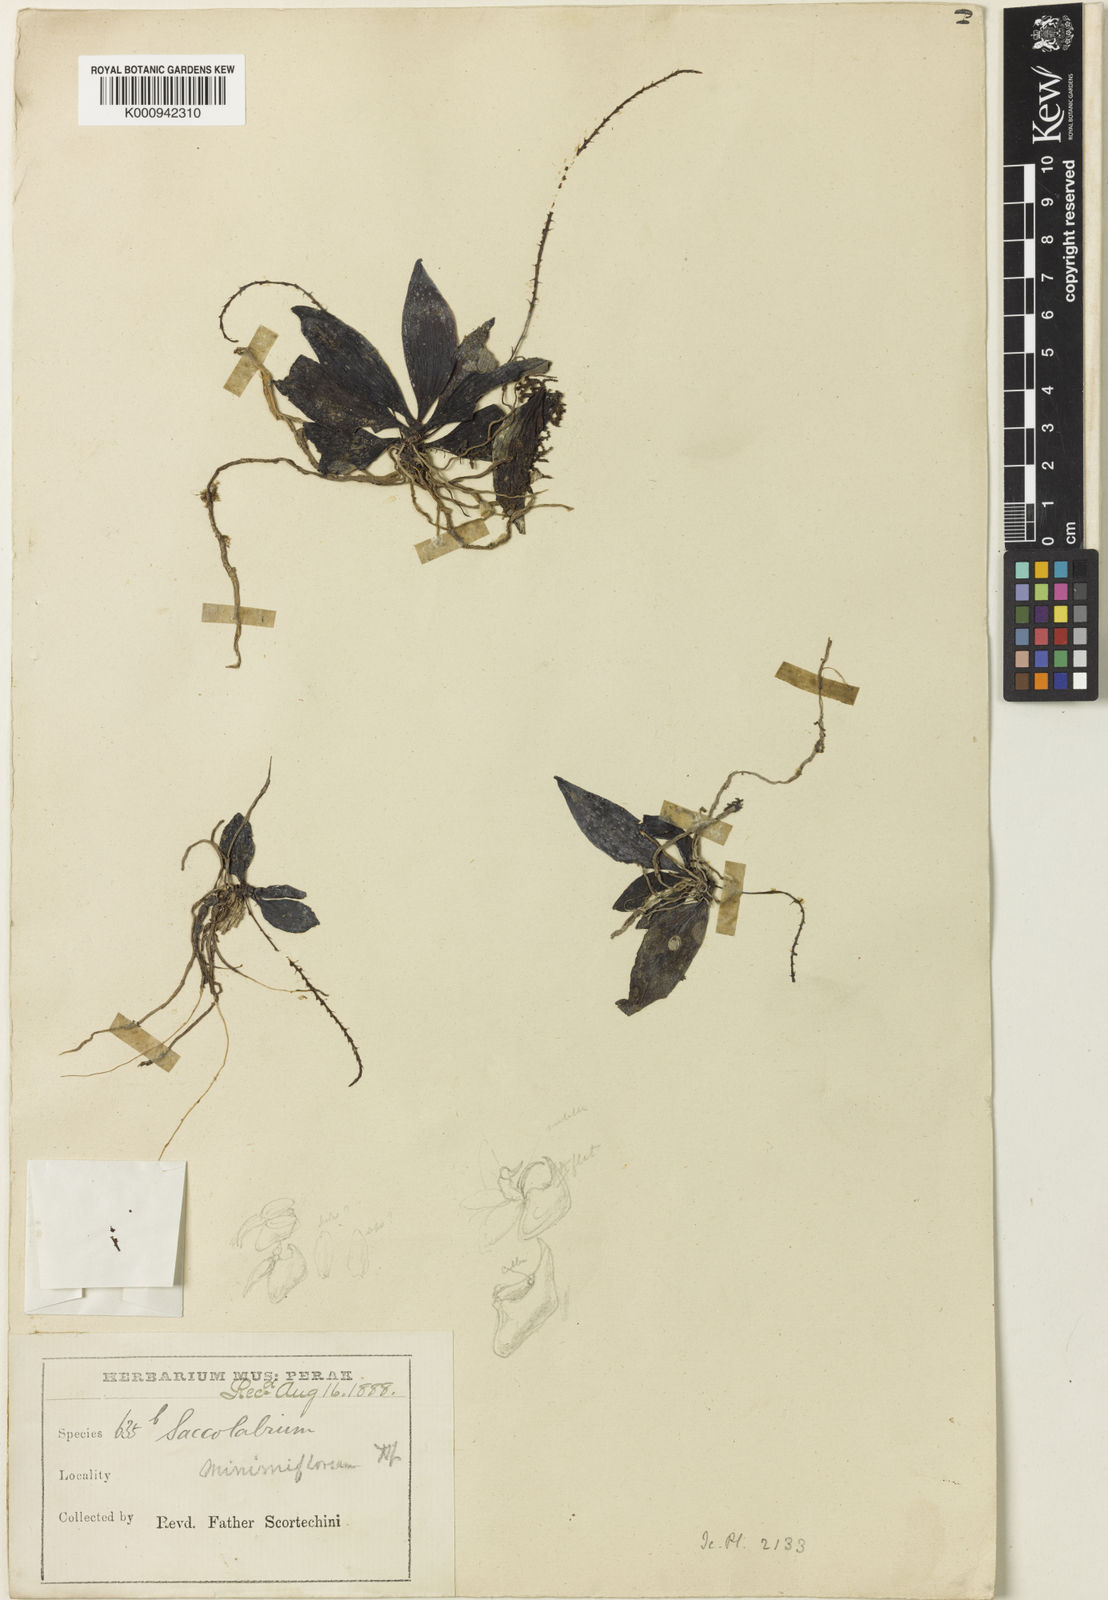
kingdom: Plantae
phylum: Tracheophyta
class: Liliopsida
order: Asparagales
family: Orchidaceae
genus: Robiquetia
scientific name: Robiquetia minimiflora
